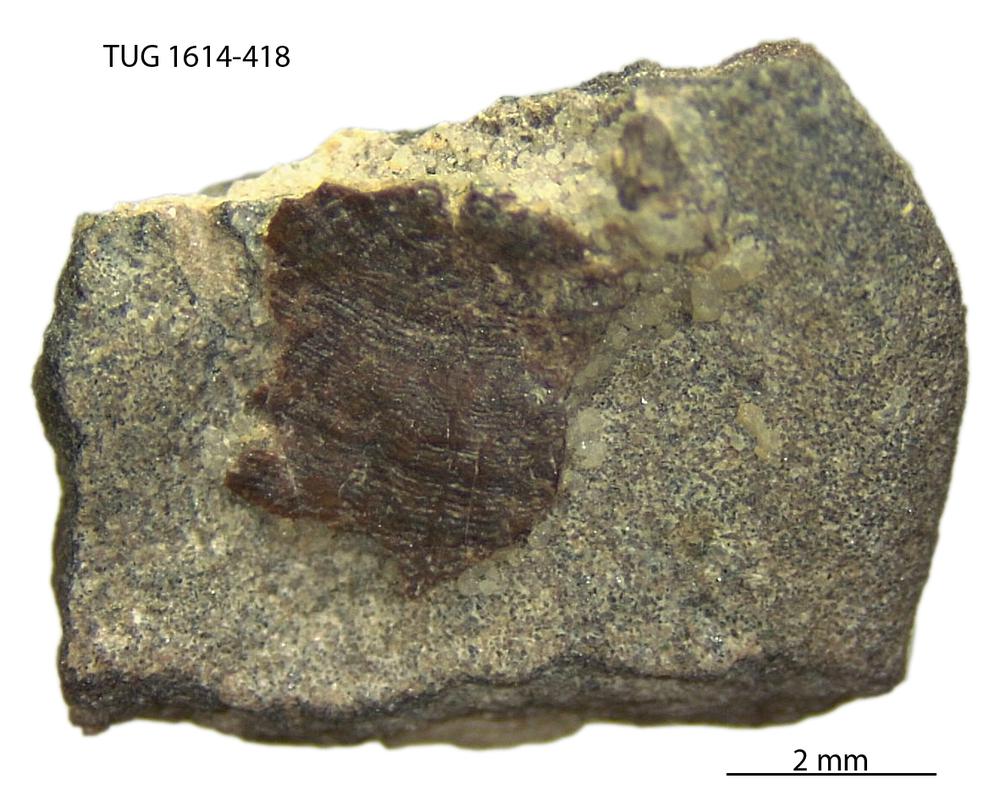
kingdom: Animalia
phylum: Mollusca
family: Scenellidae
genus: Scenella
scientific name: Scenella
